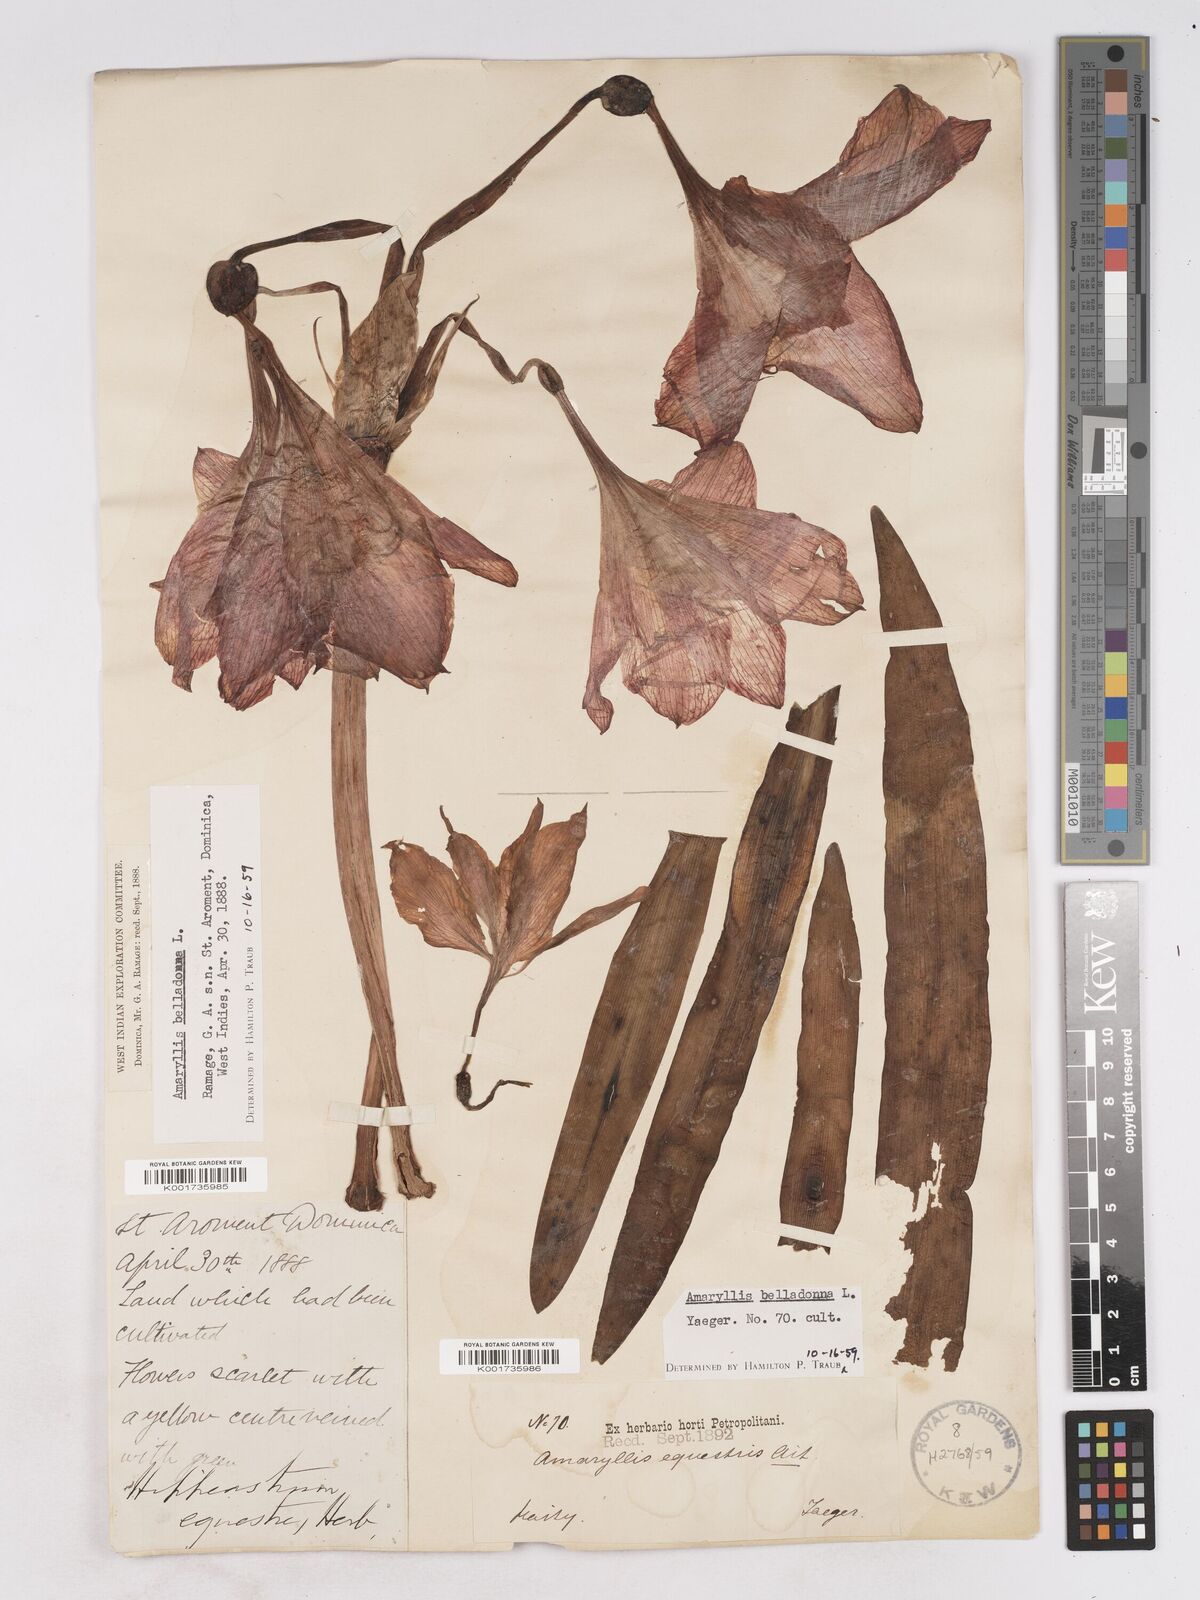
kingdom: Plantae
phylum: Tracheophyta
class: Liliopsida
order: Asparagales
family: Amaryllidaceae
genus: Hippeastrum
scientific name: Hippeastrum puniceum
